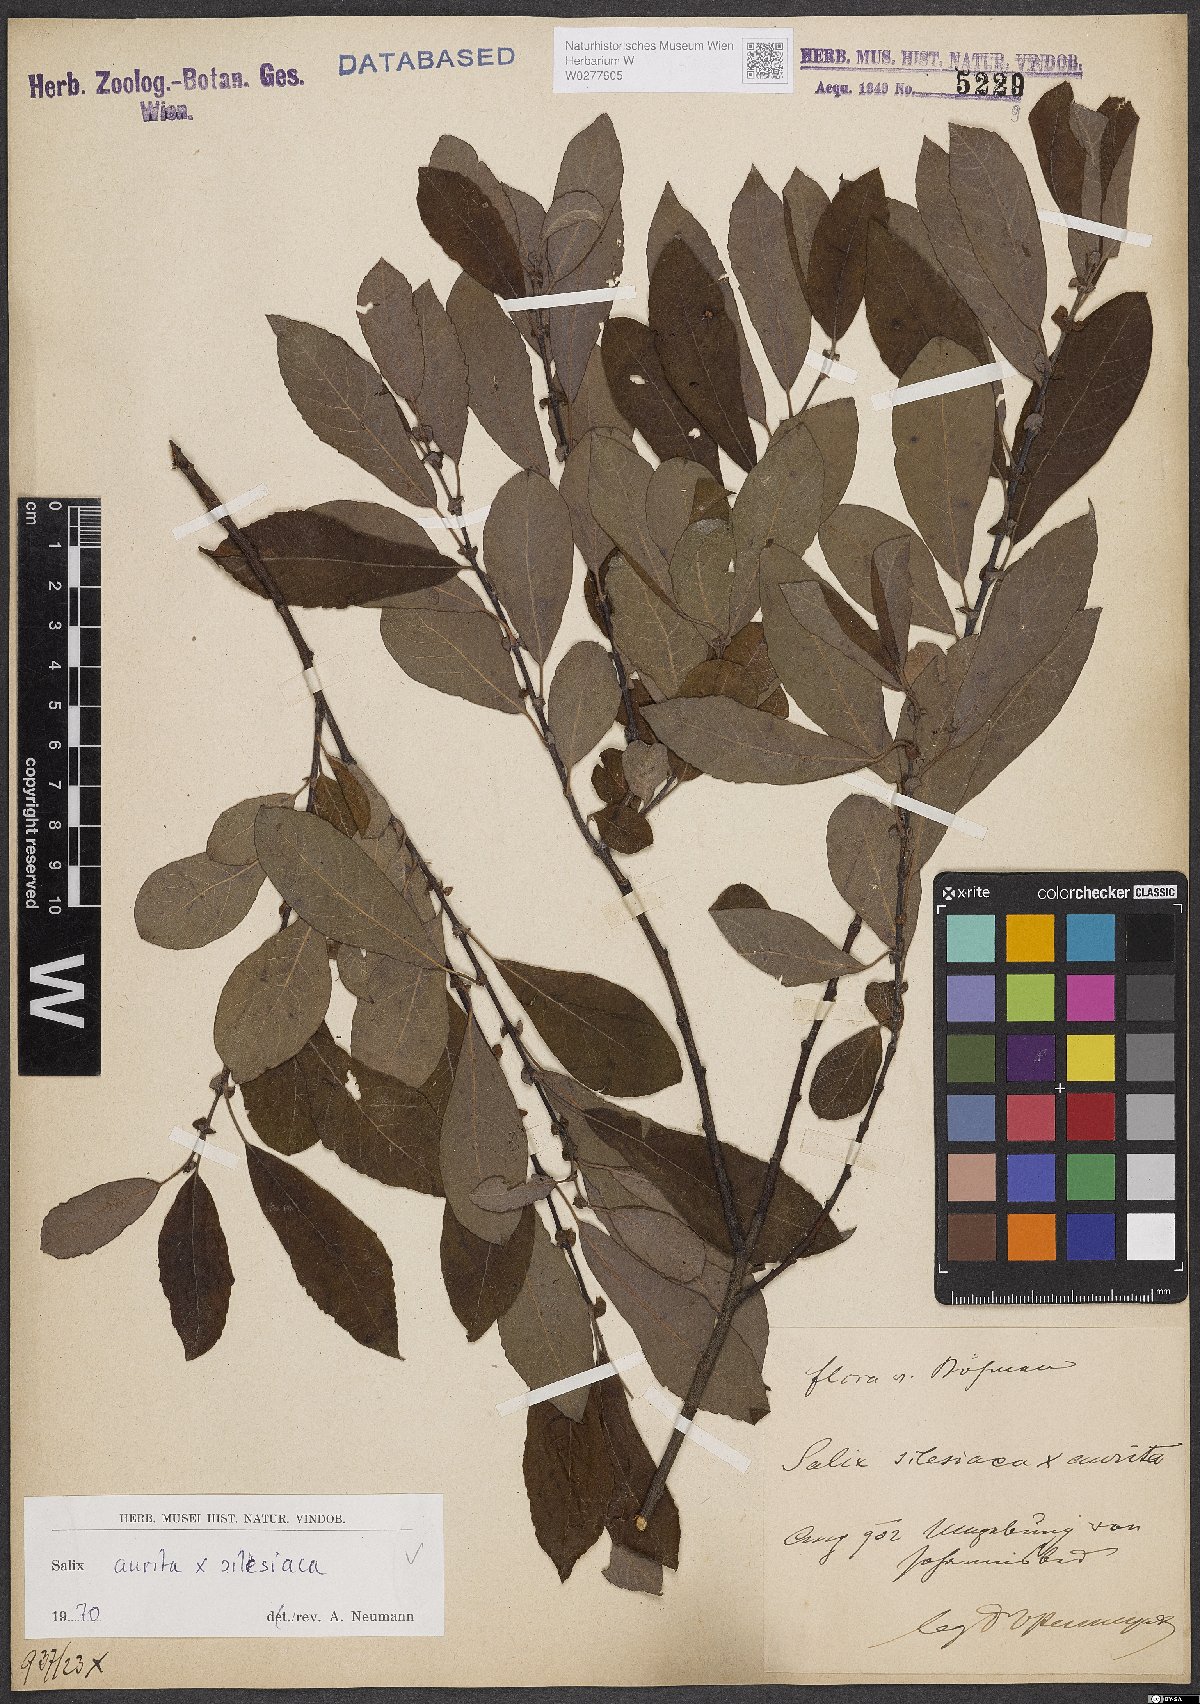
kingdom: Plantae
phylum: Tracheophyta
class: Magnoliopsida
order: Malpighiales
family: Salicaceae
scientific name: Salicaceae
